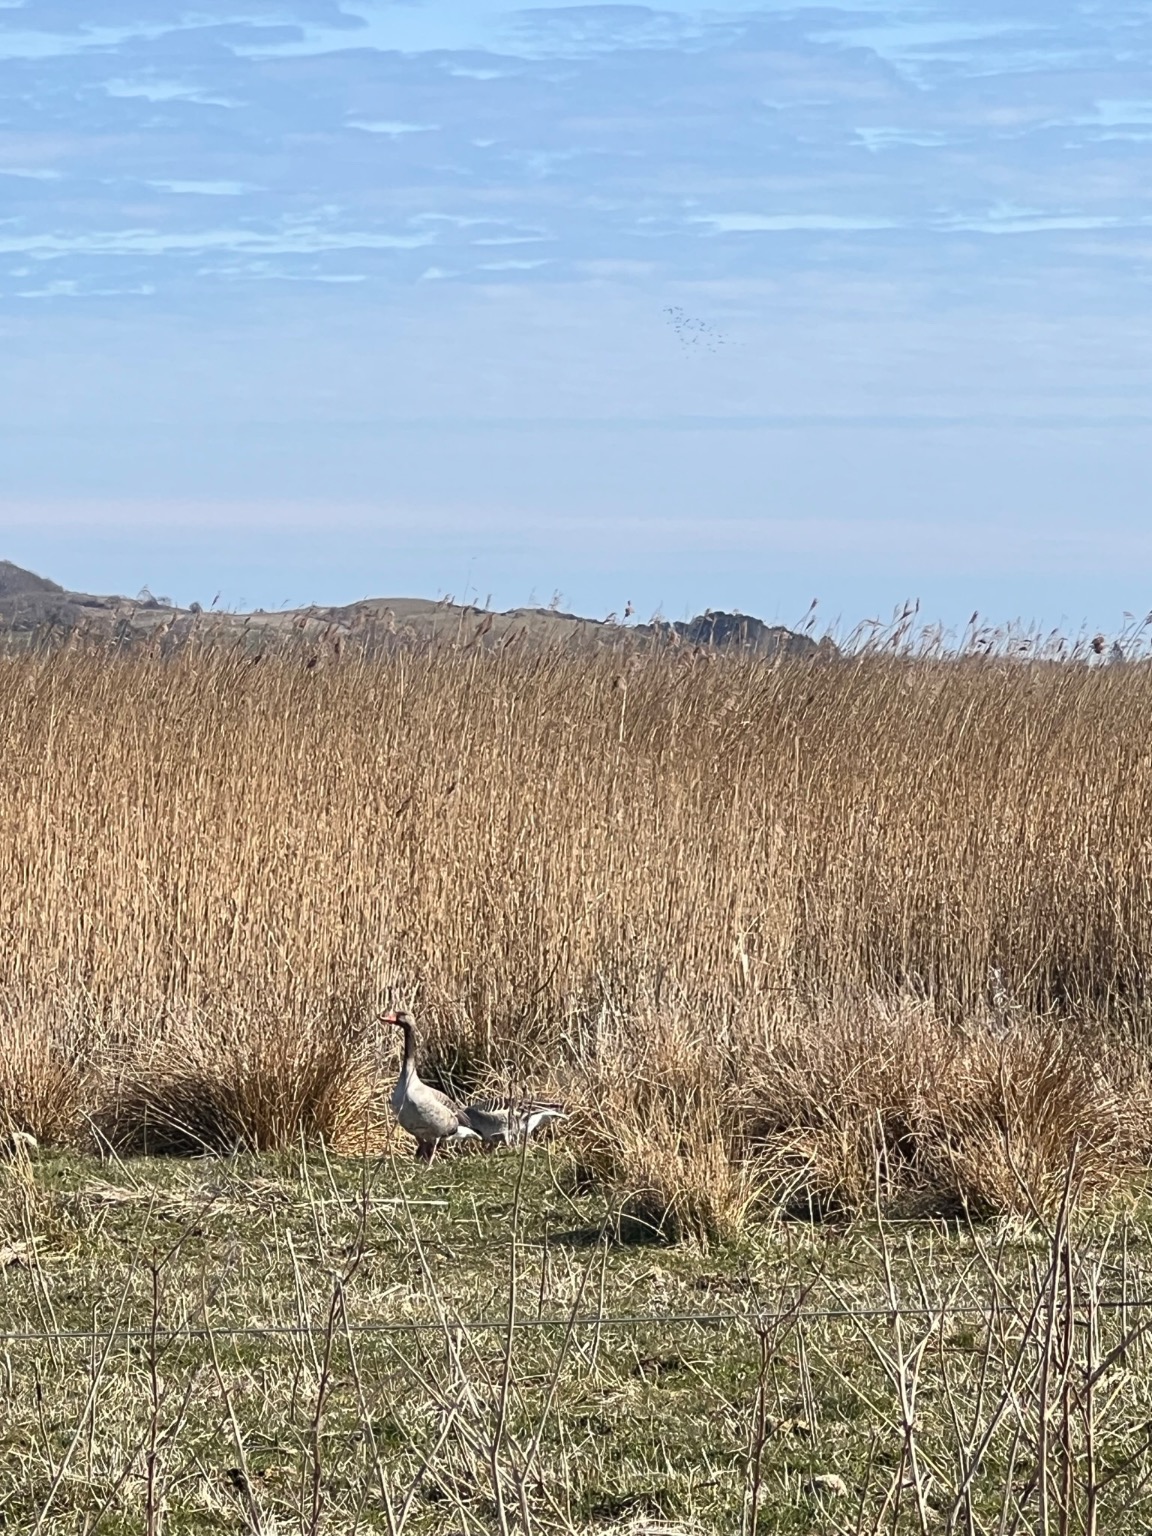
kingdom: Animalia
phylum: Chordata
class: Aves
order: Anseriformes
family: Anatidae
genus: Anser
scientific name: Anser anser
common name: Grågås
